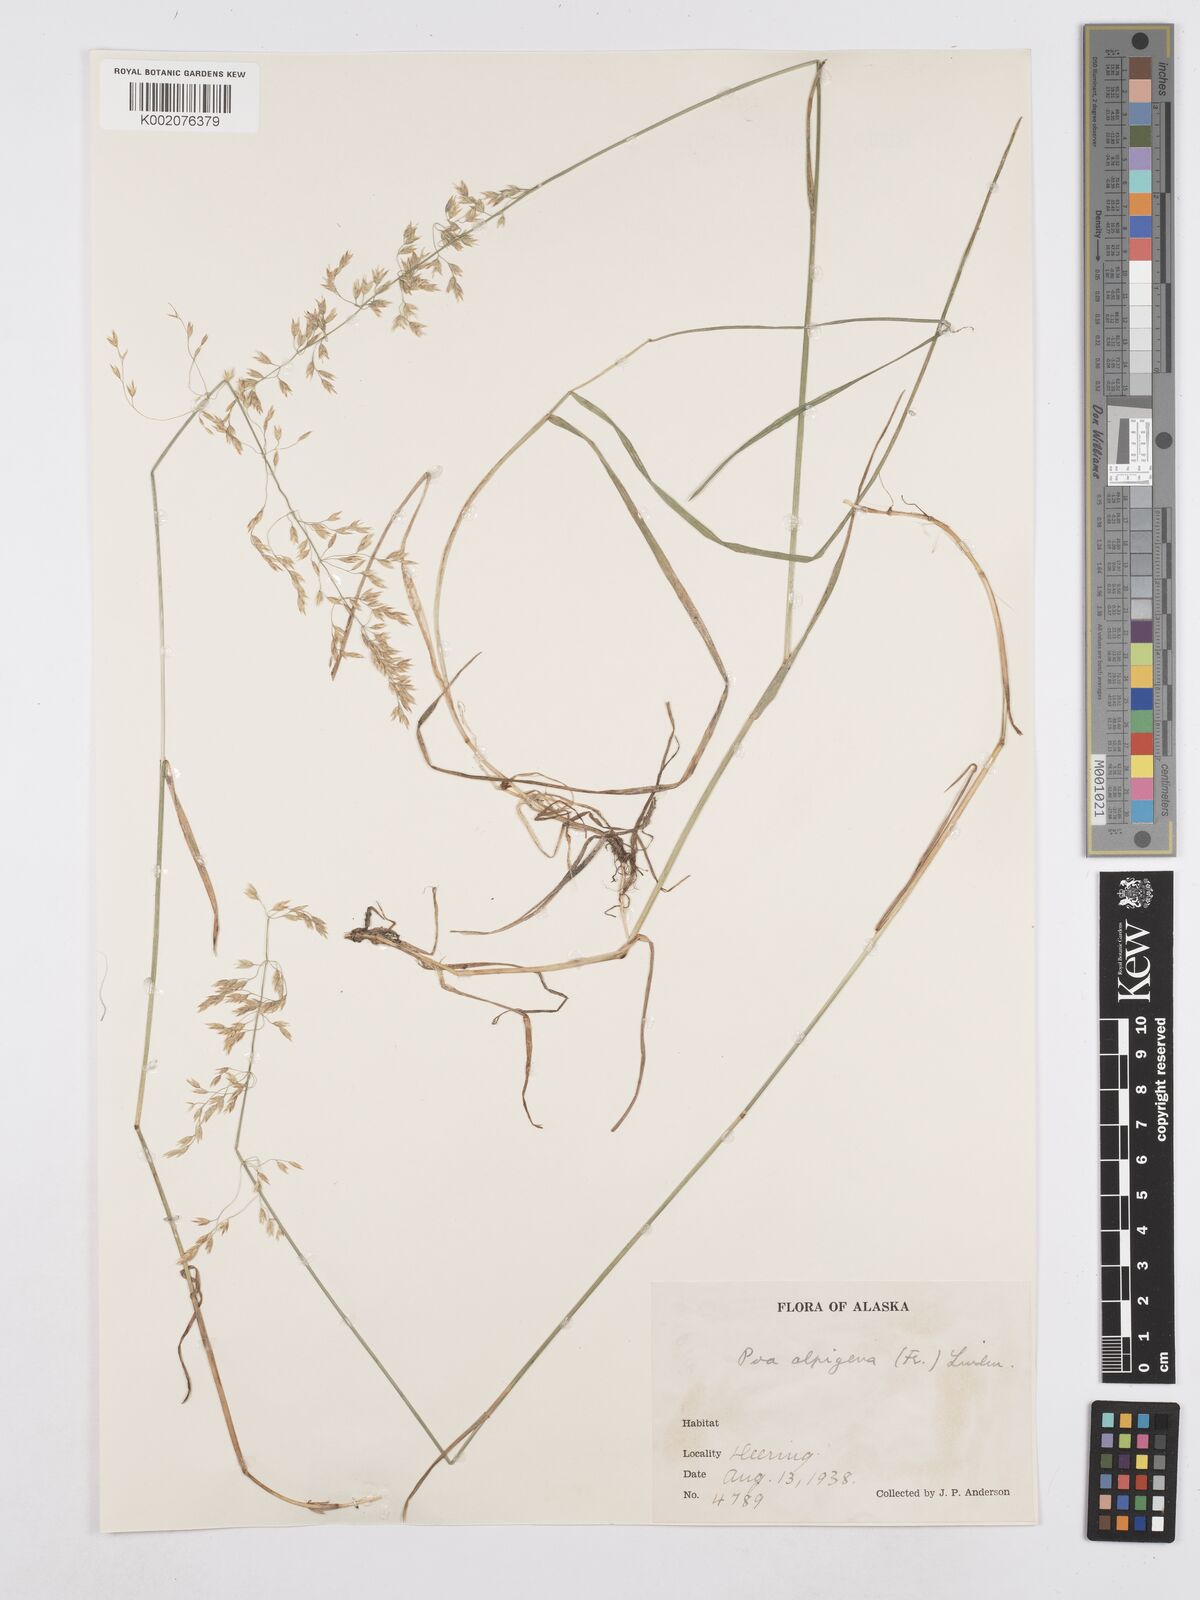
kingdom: Plantae
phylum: Tracheophyta
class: Liliopsida
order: Poales
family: Poaceae
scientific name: Poaceae
